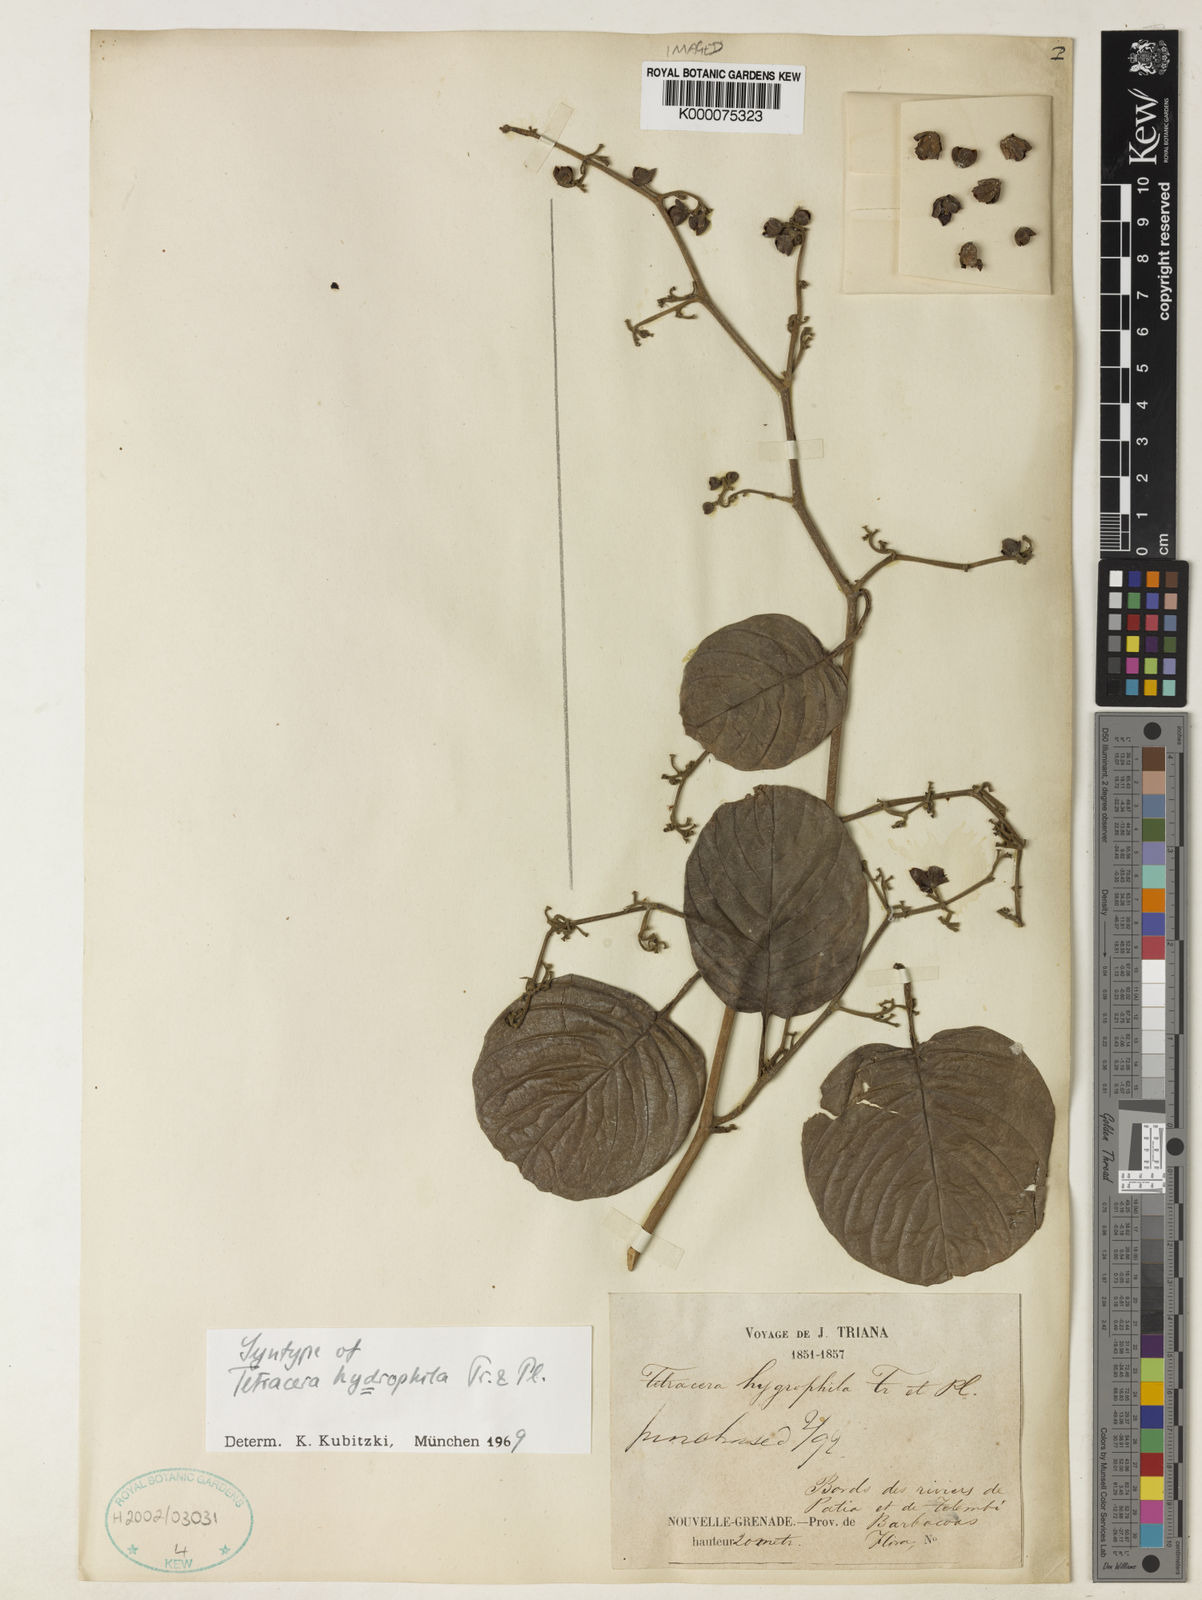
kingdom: Plantae
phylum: Tracheophyta
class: Magnoliopsida
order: Dilleniales
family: Dilleniaceae
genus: Tetracera
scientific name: Tetracera hydrophila
